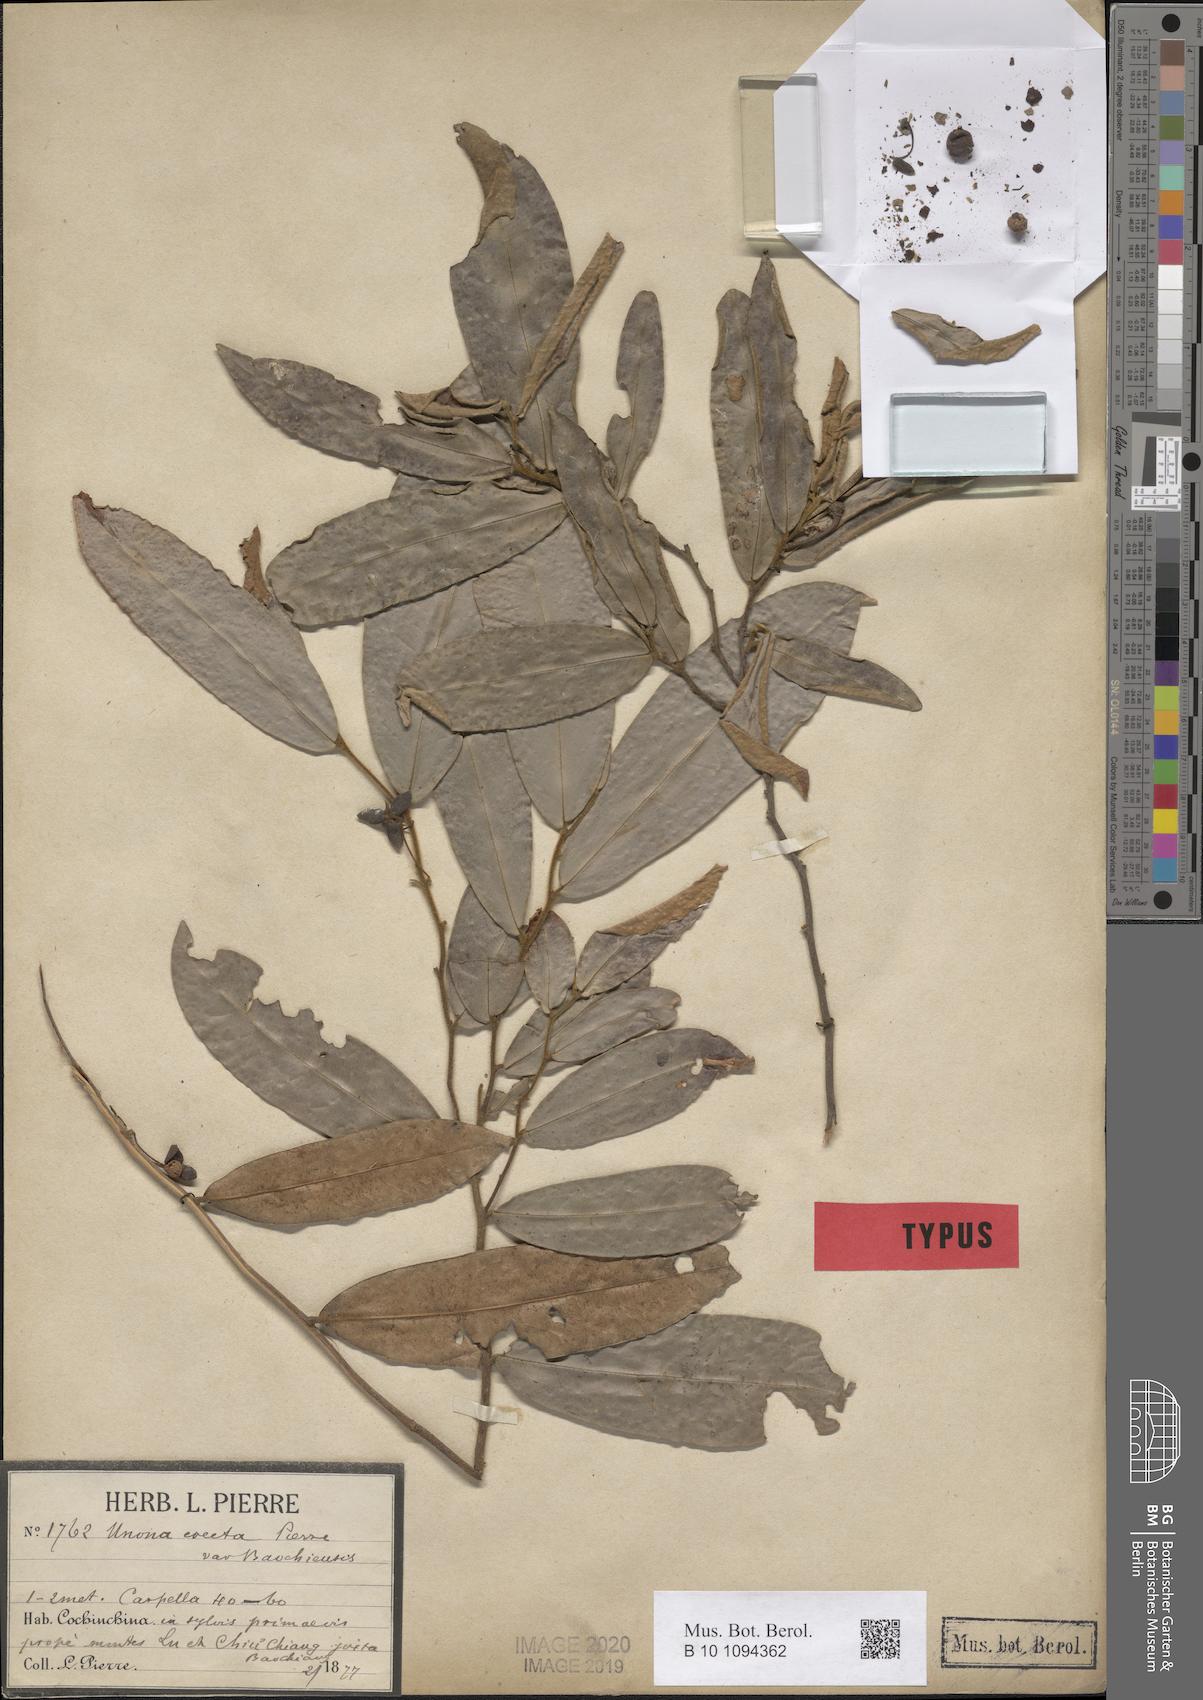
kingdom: Plantae
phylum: Tracheophyta
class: Magnoliopsida
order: Magnoliales
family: Annonaceae
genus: Polyalthia
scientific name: Polyalthia evecta
